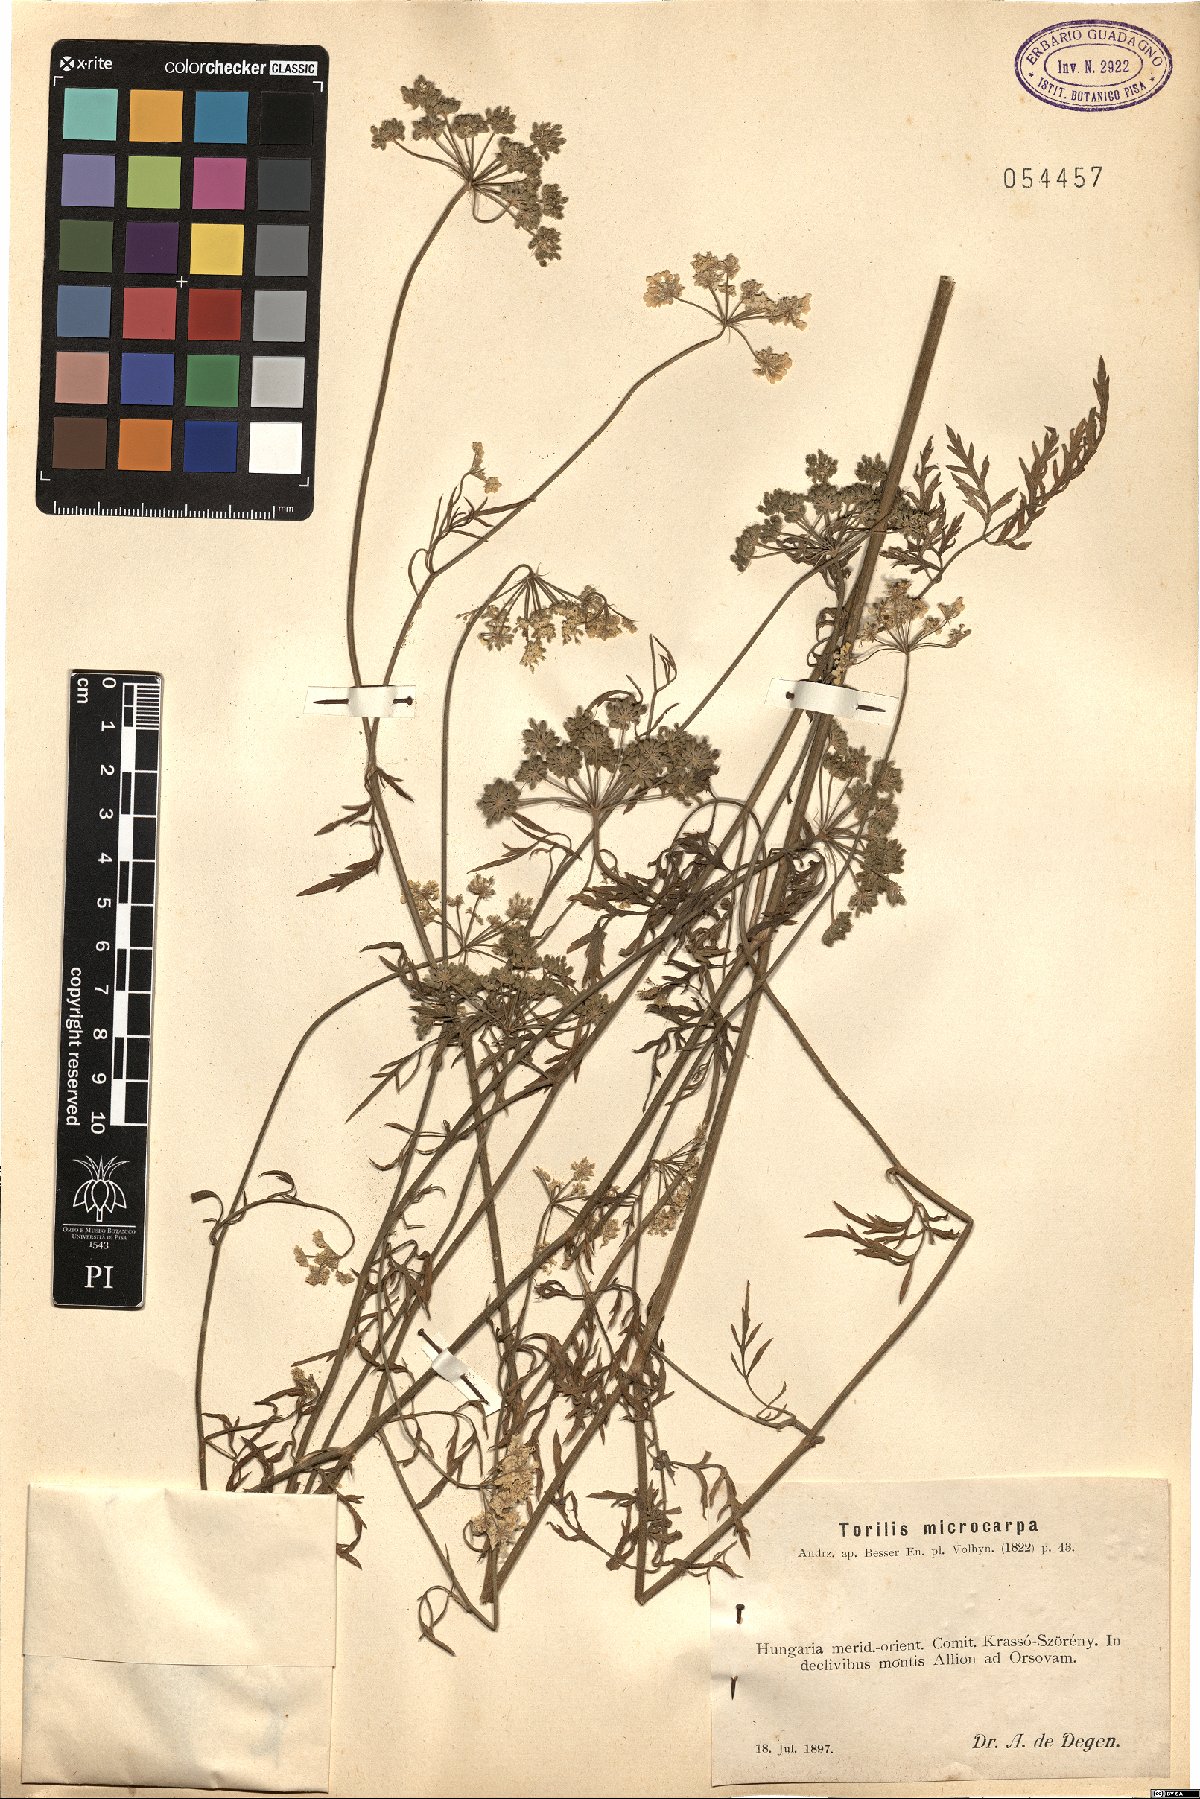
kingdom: Plantae
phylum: Tracheophyta
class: Magnoliopsida
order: Apiales
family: Apiaceae
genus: Torilis
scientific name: Torilis ucranica
